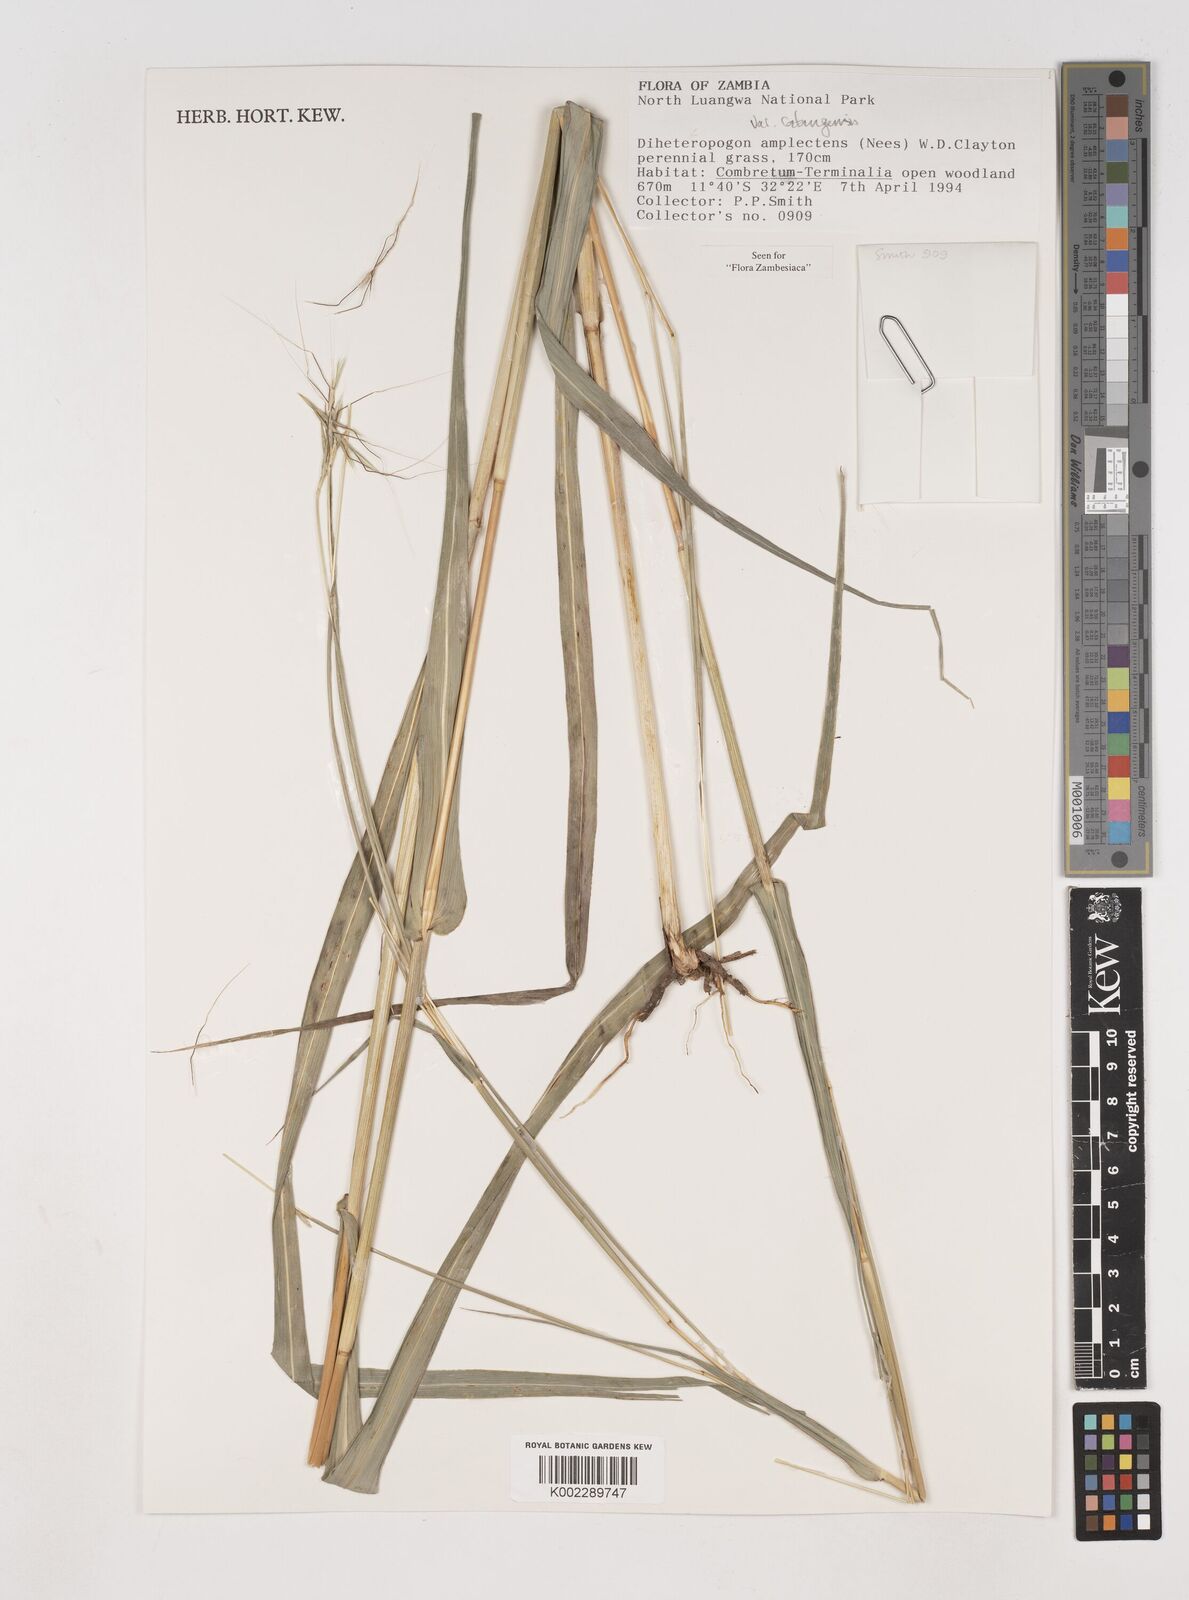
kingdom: Plantae
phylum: Tracheophyta
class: Liliopsida
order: Poales
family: Poaceae
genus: Diheteropogon
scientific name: Diheteropogon amplectens
